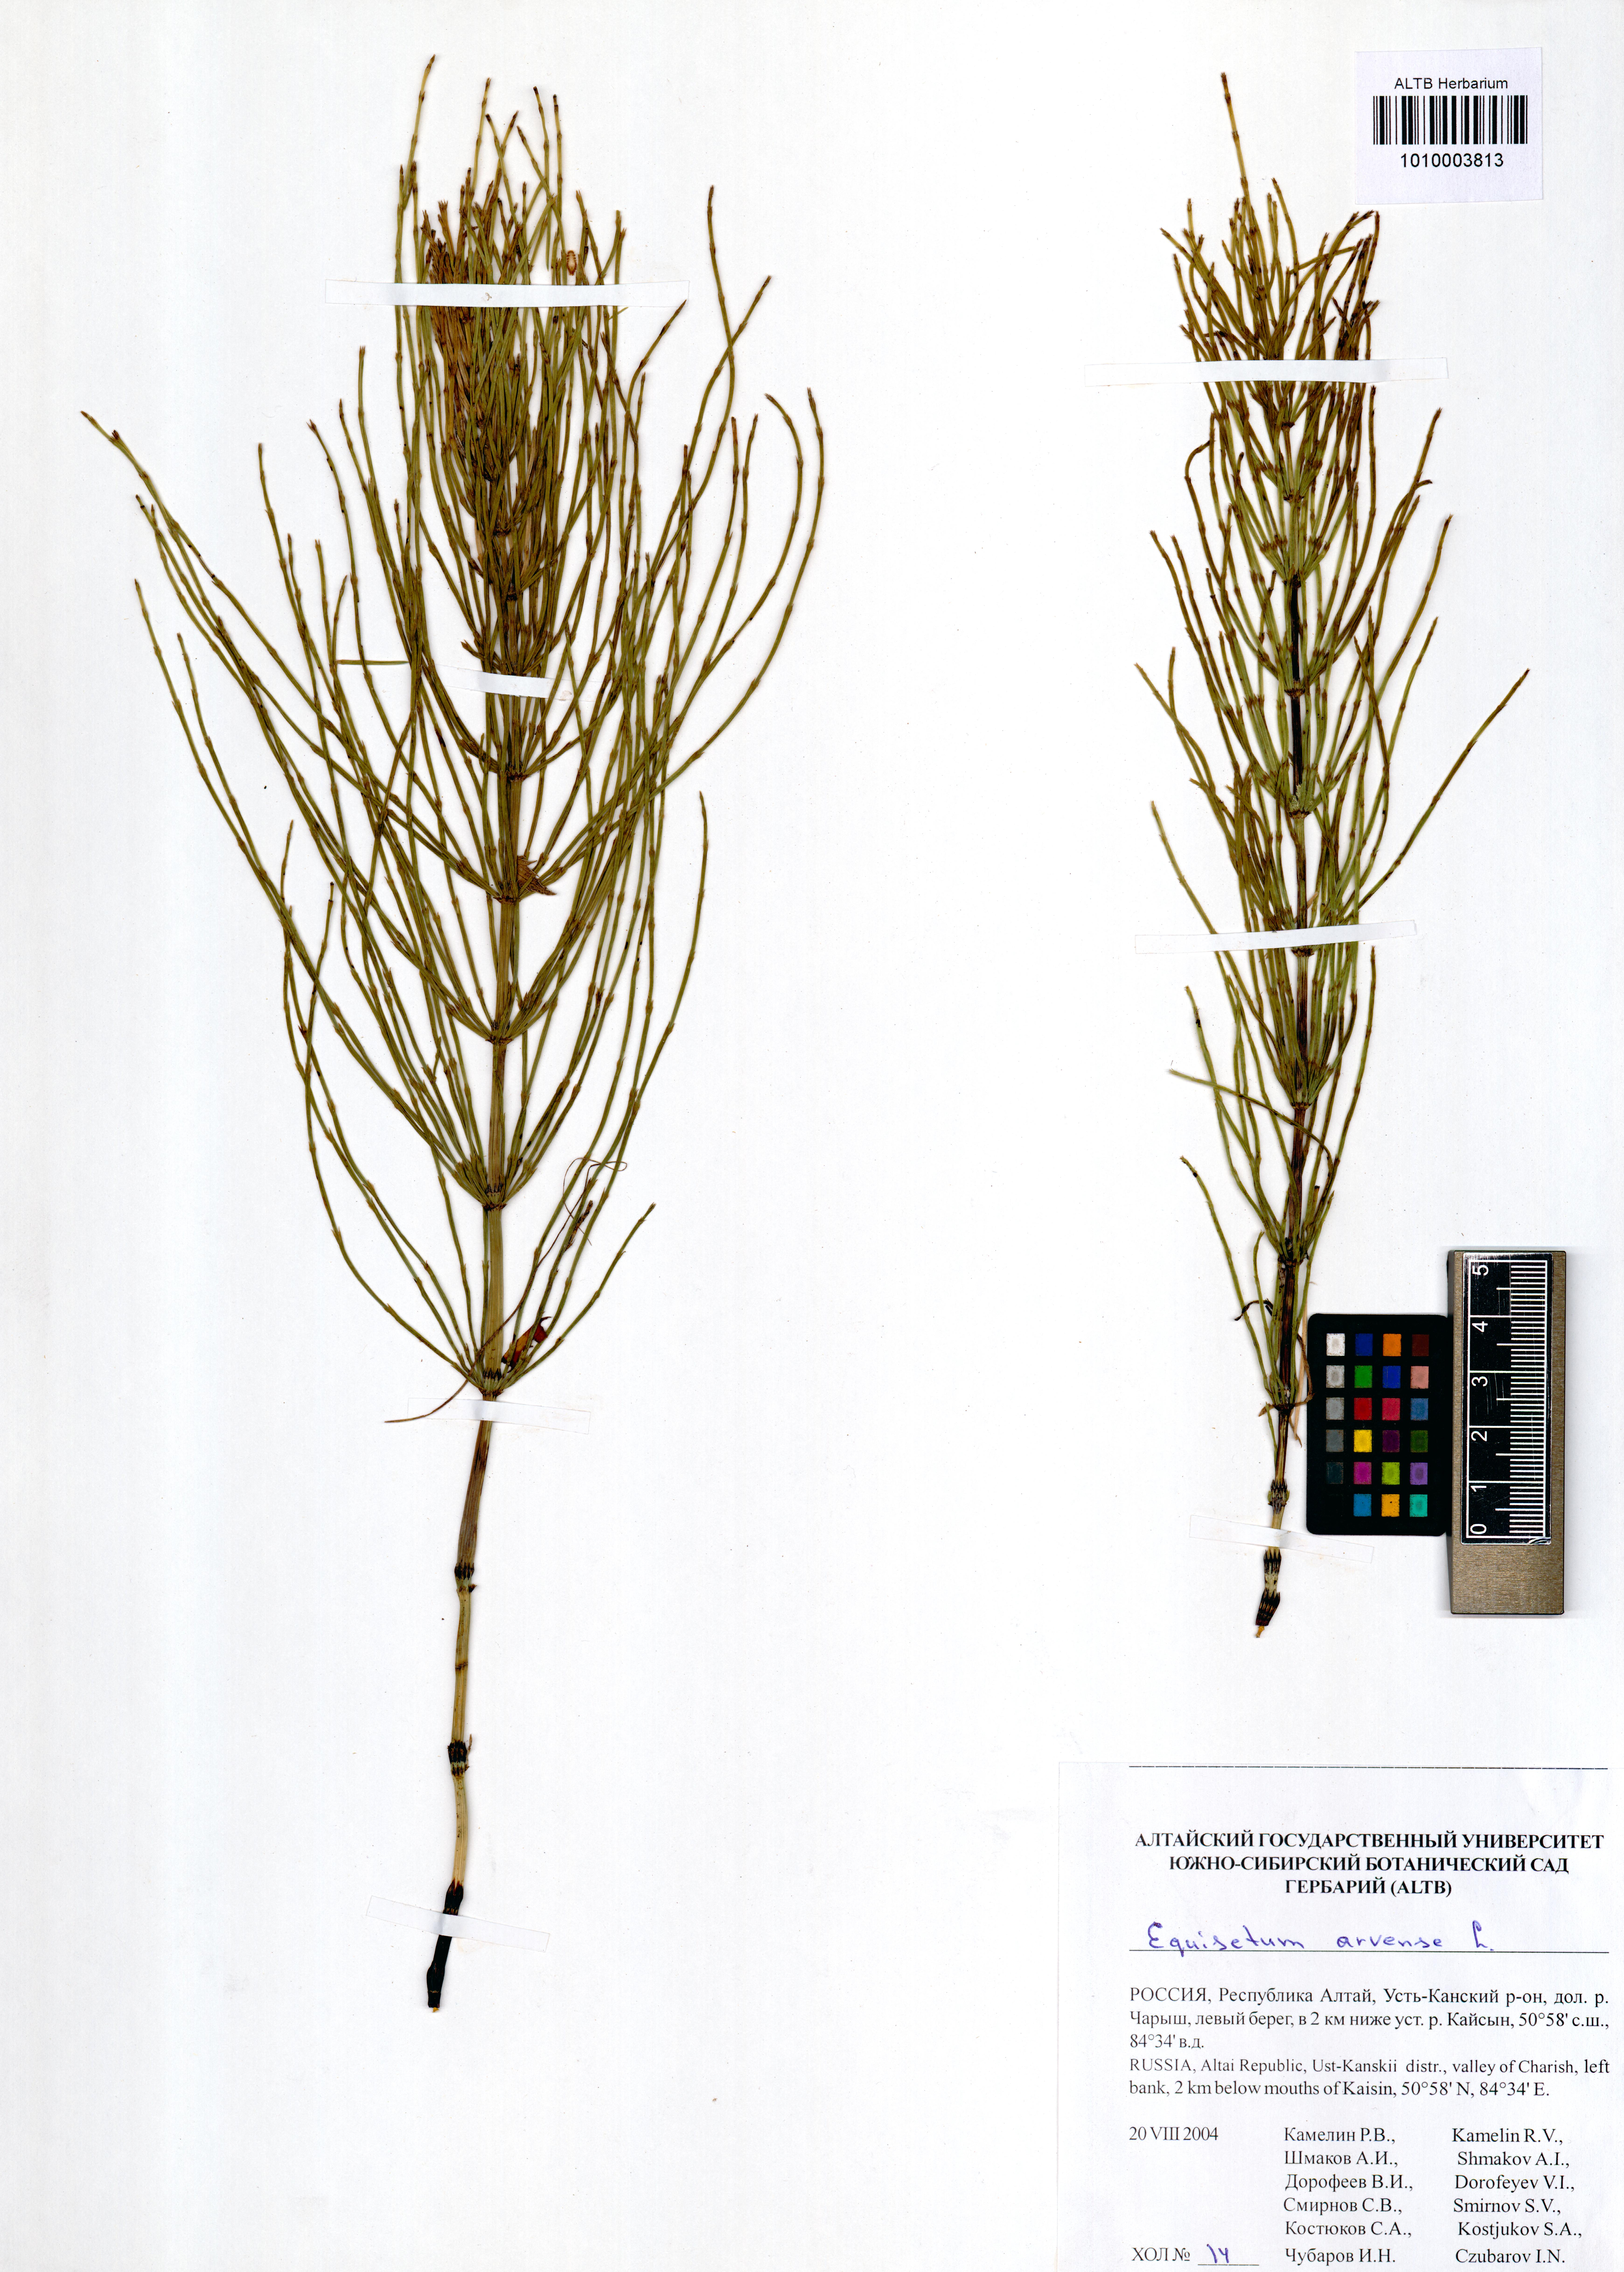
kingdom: Plantae
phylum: Tracheophyta
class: Polypodiopsida
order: Equisetales
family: Equisetaceae
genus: Equisetum
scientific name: Equisetum arvense
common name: Field horsetail
